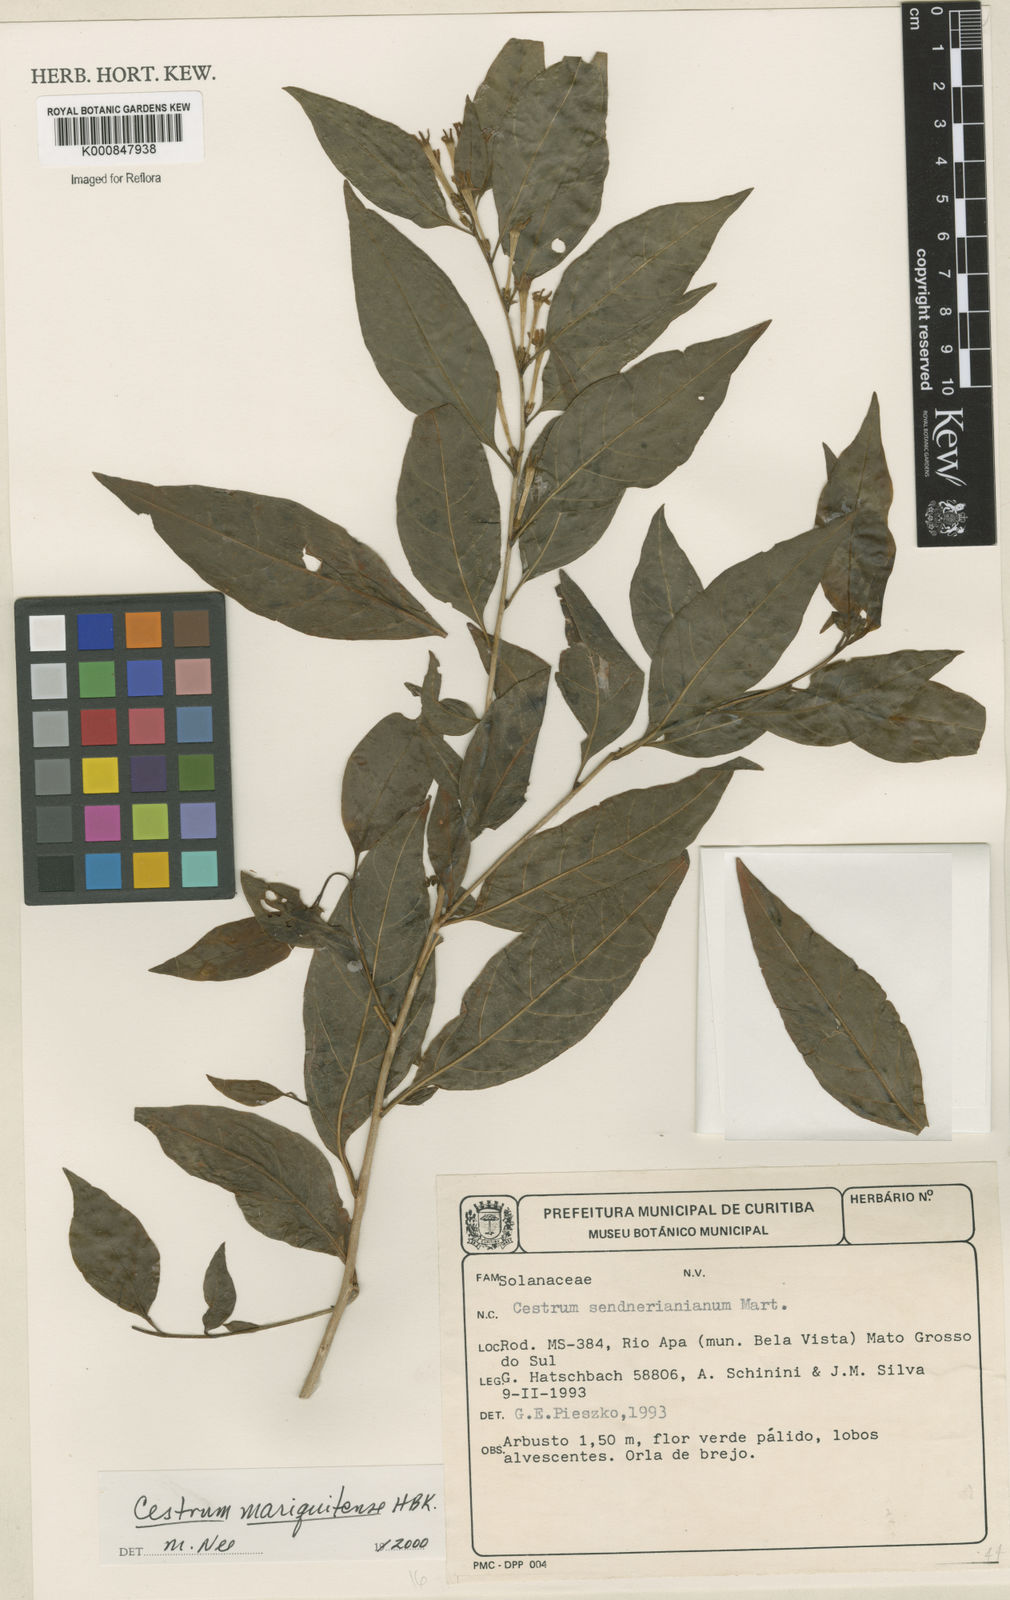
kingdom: Plantae
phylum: Tracheophyta
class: Magnoliopsida
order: Solanales
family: Solanaceae
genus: Cestrum
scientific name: Cestrum mariquitense
